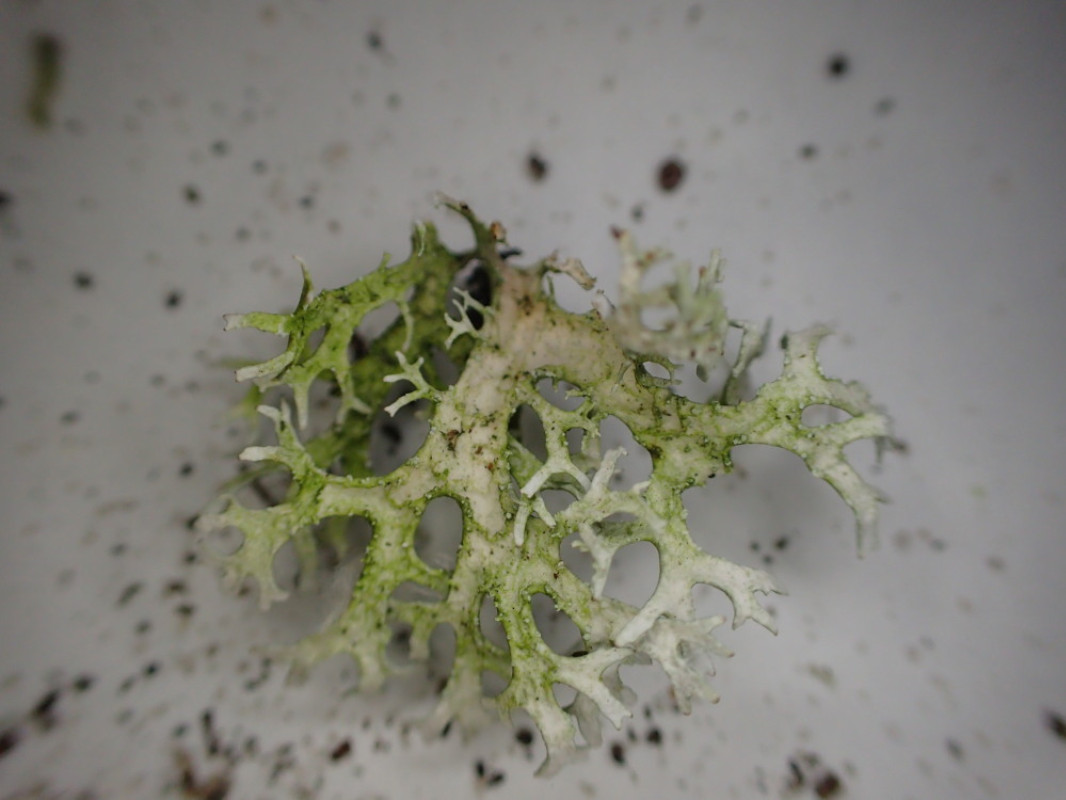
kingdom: Fungi
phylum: Ascomycota
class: Lecanoromycetes
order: Lecanorales
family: Parmeliaceae
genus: Evernia
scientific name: Evernia prunastri
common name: almindelig slåenlav
